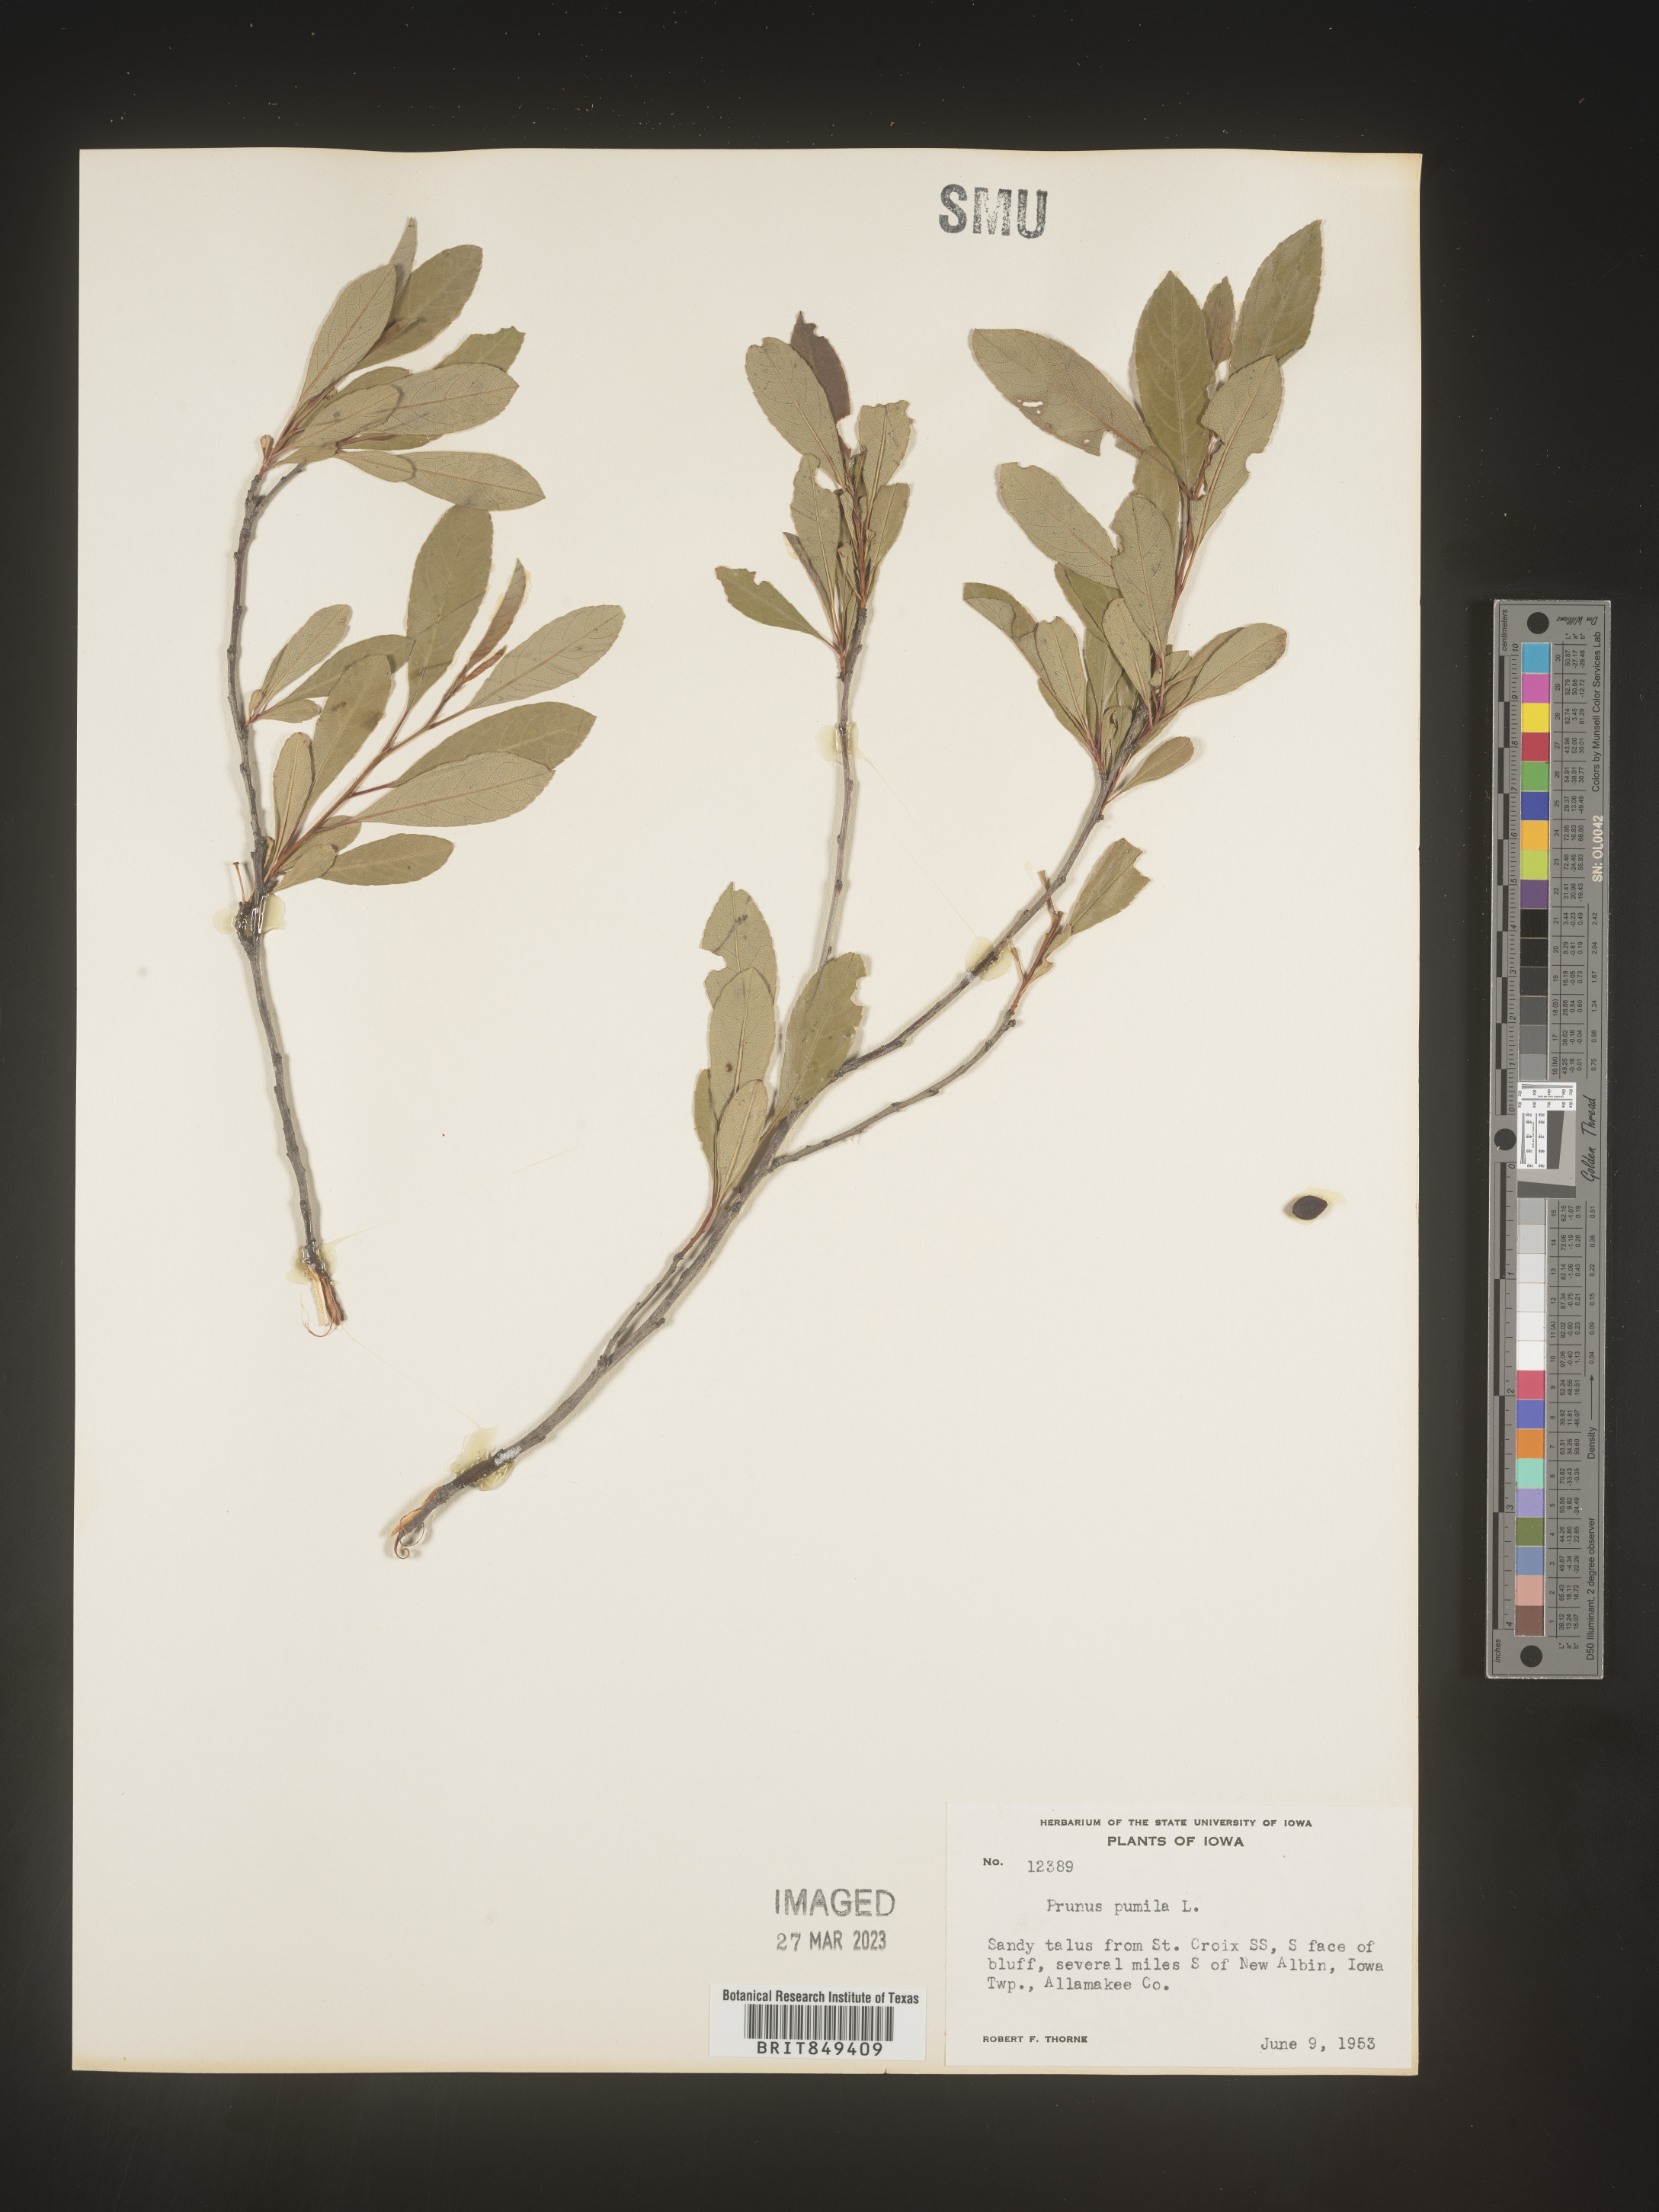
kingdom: Plantae
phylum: Tracheophyta
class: Magnoliopsida
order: Rosales
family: Rosaceae
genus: Prunus
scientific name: Prunus pumila
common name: Dwarf cherry
